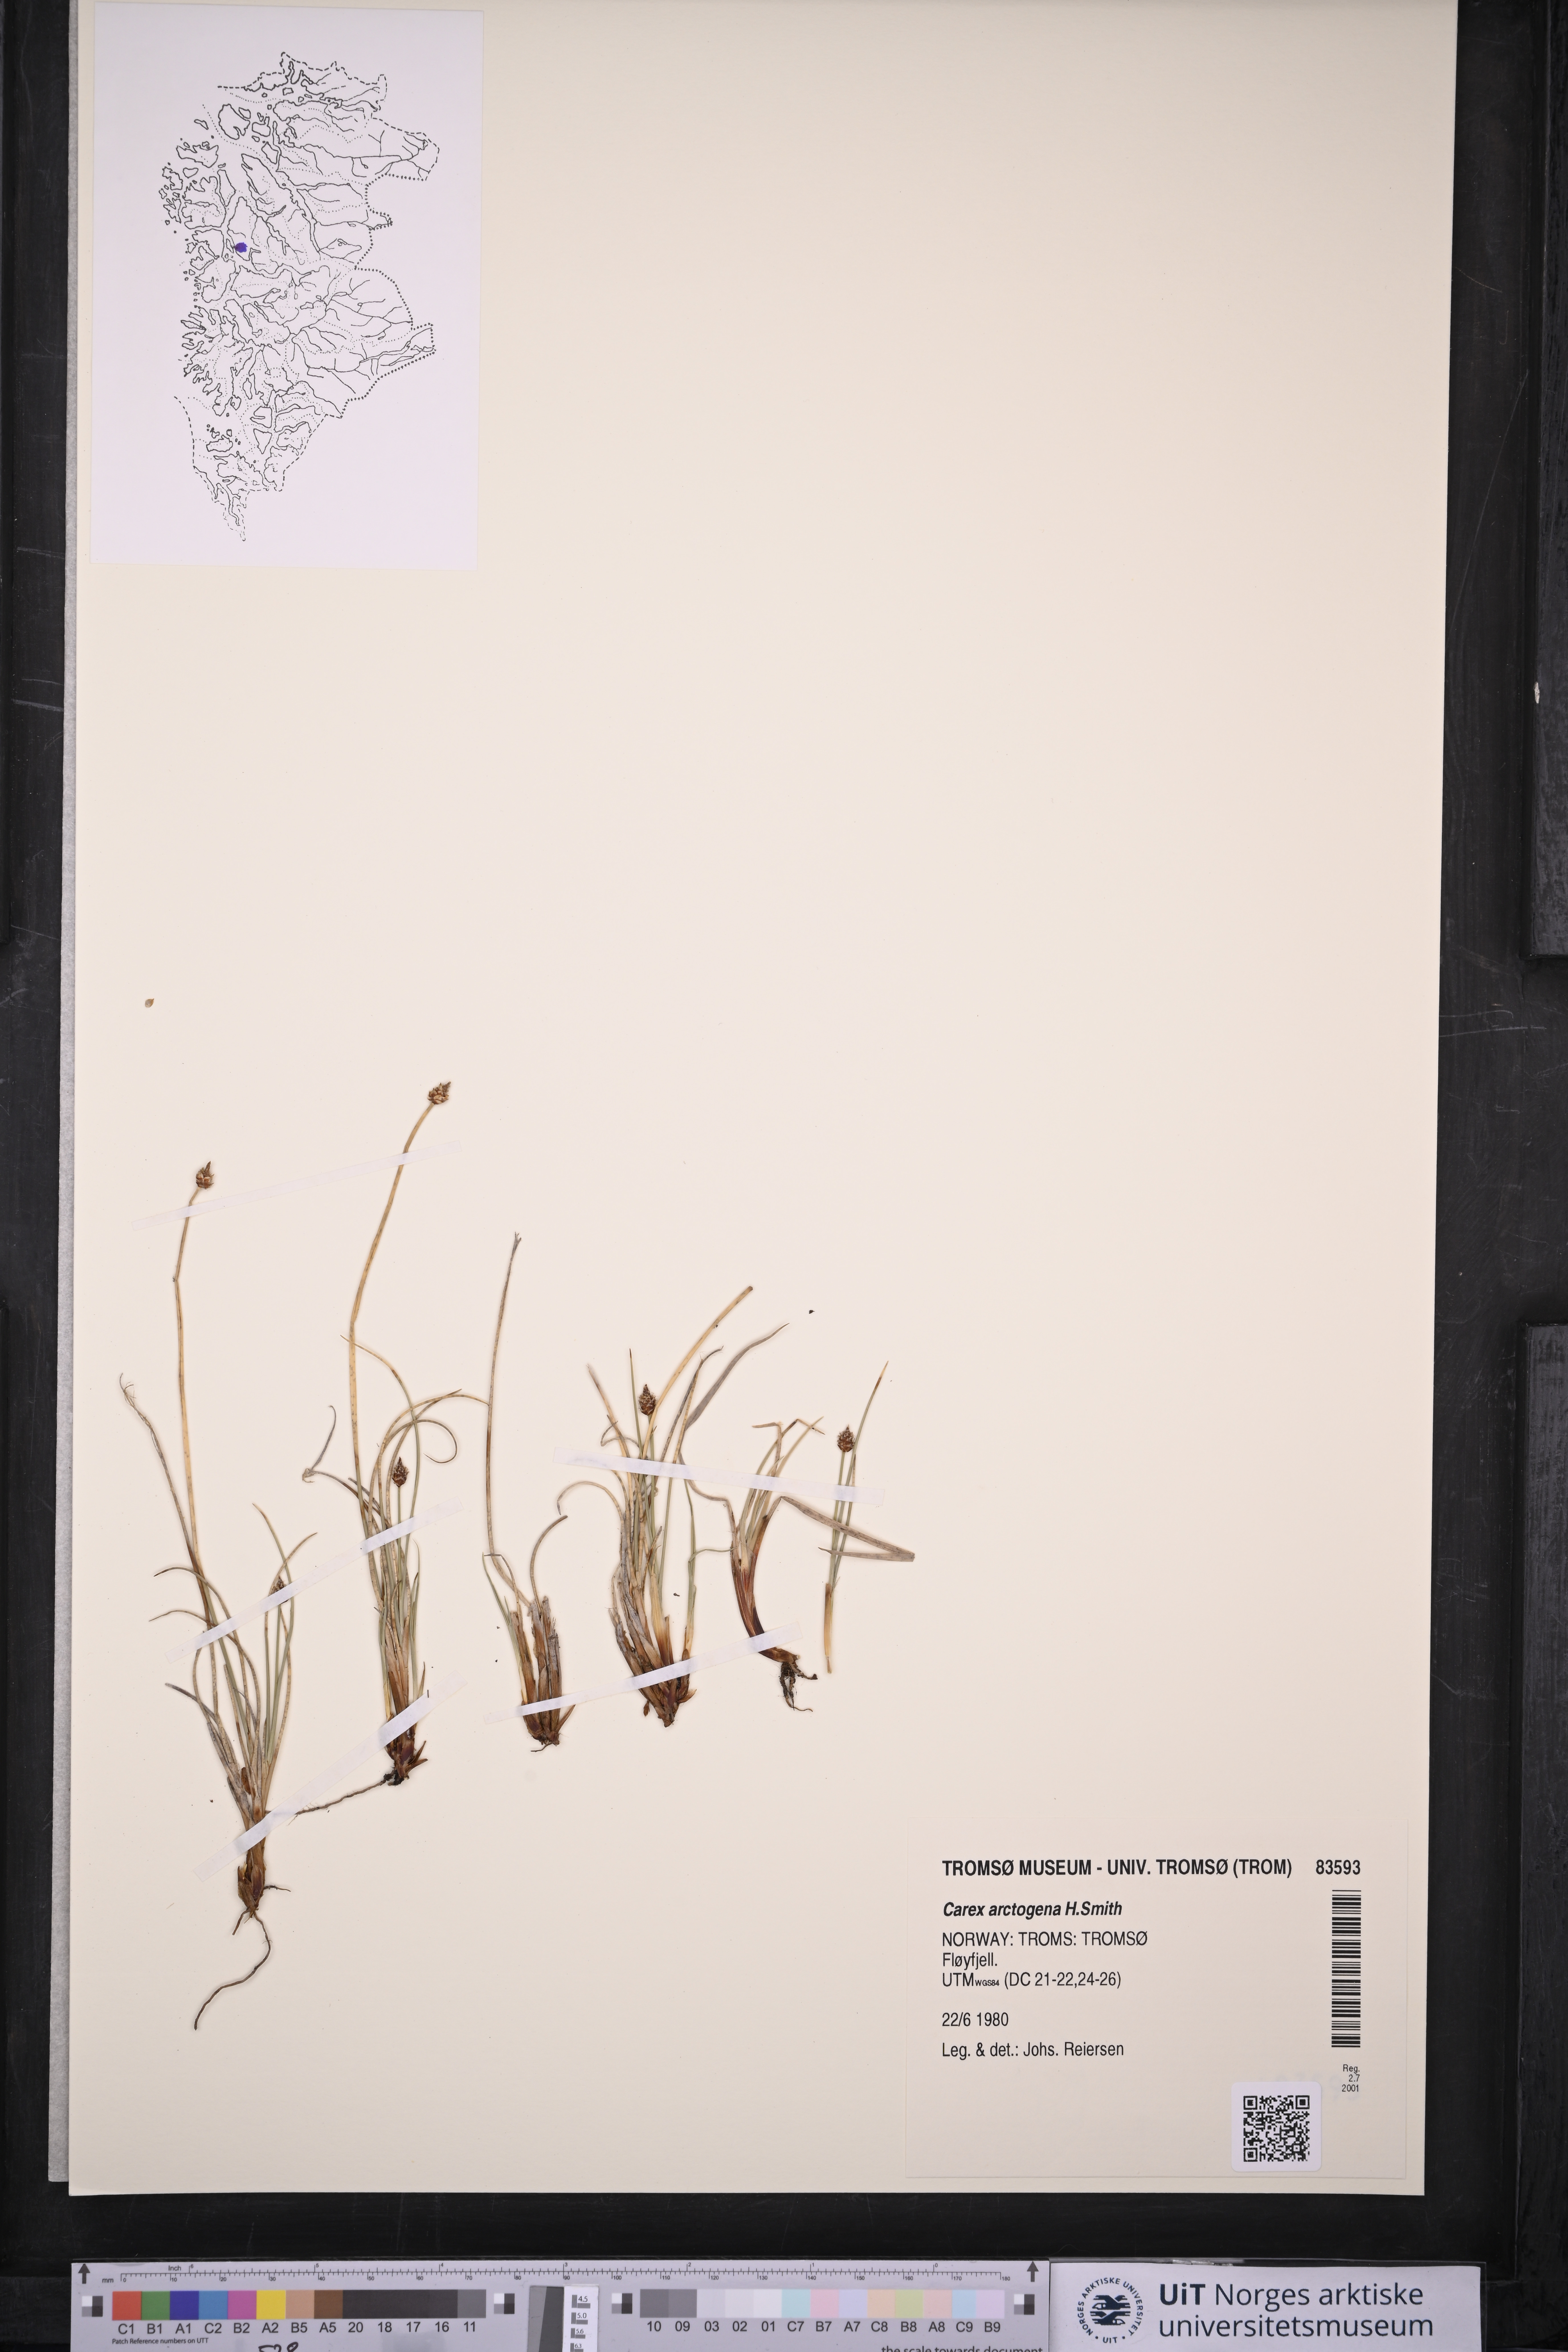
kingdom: Plantae
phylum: Tracheophyta
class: Liliopsida
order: Poales
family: Cyperaceae
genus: Carex
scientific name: Carex arctogena
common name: Black sedge
